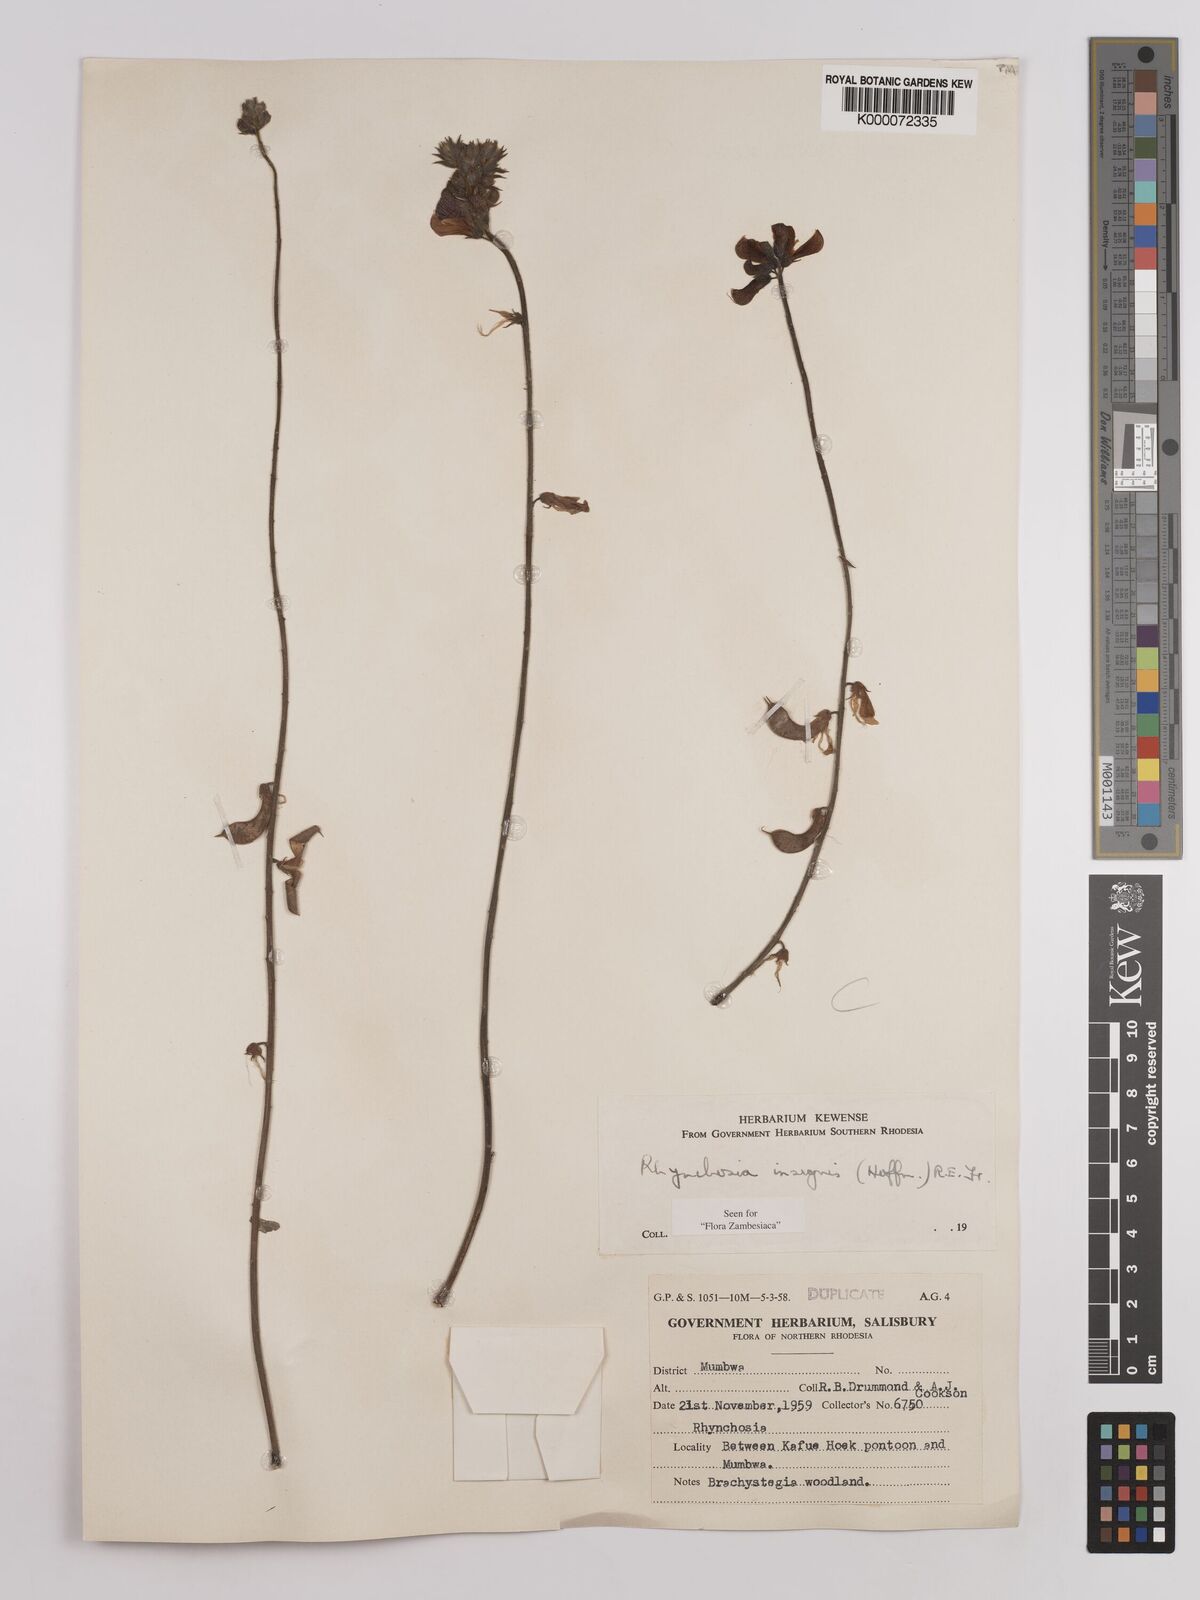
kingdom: Plantae
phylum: Tracheophyta
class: Magnoliopsida
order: Fabales
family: Fabaceae
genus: Rhynchosia
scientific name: Rhynchosia insignis
